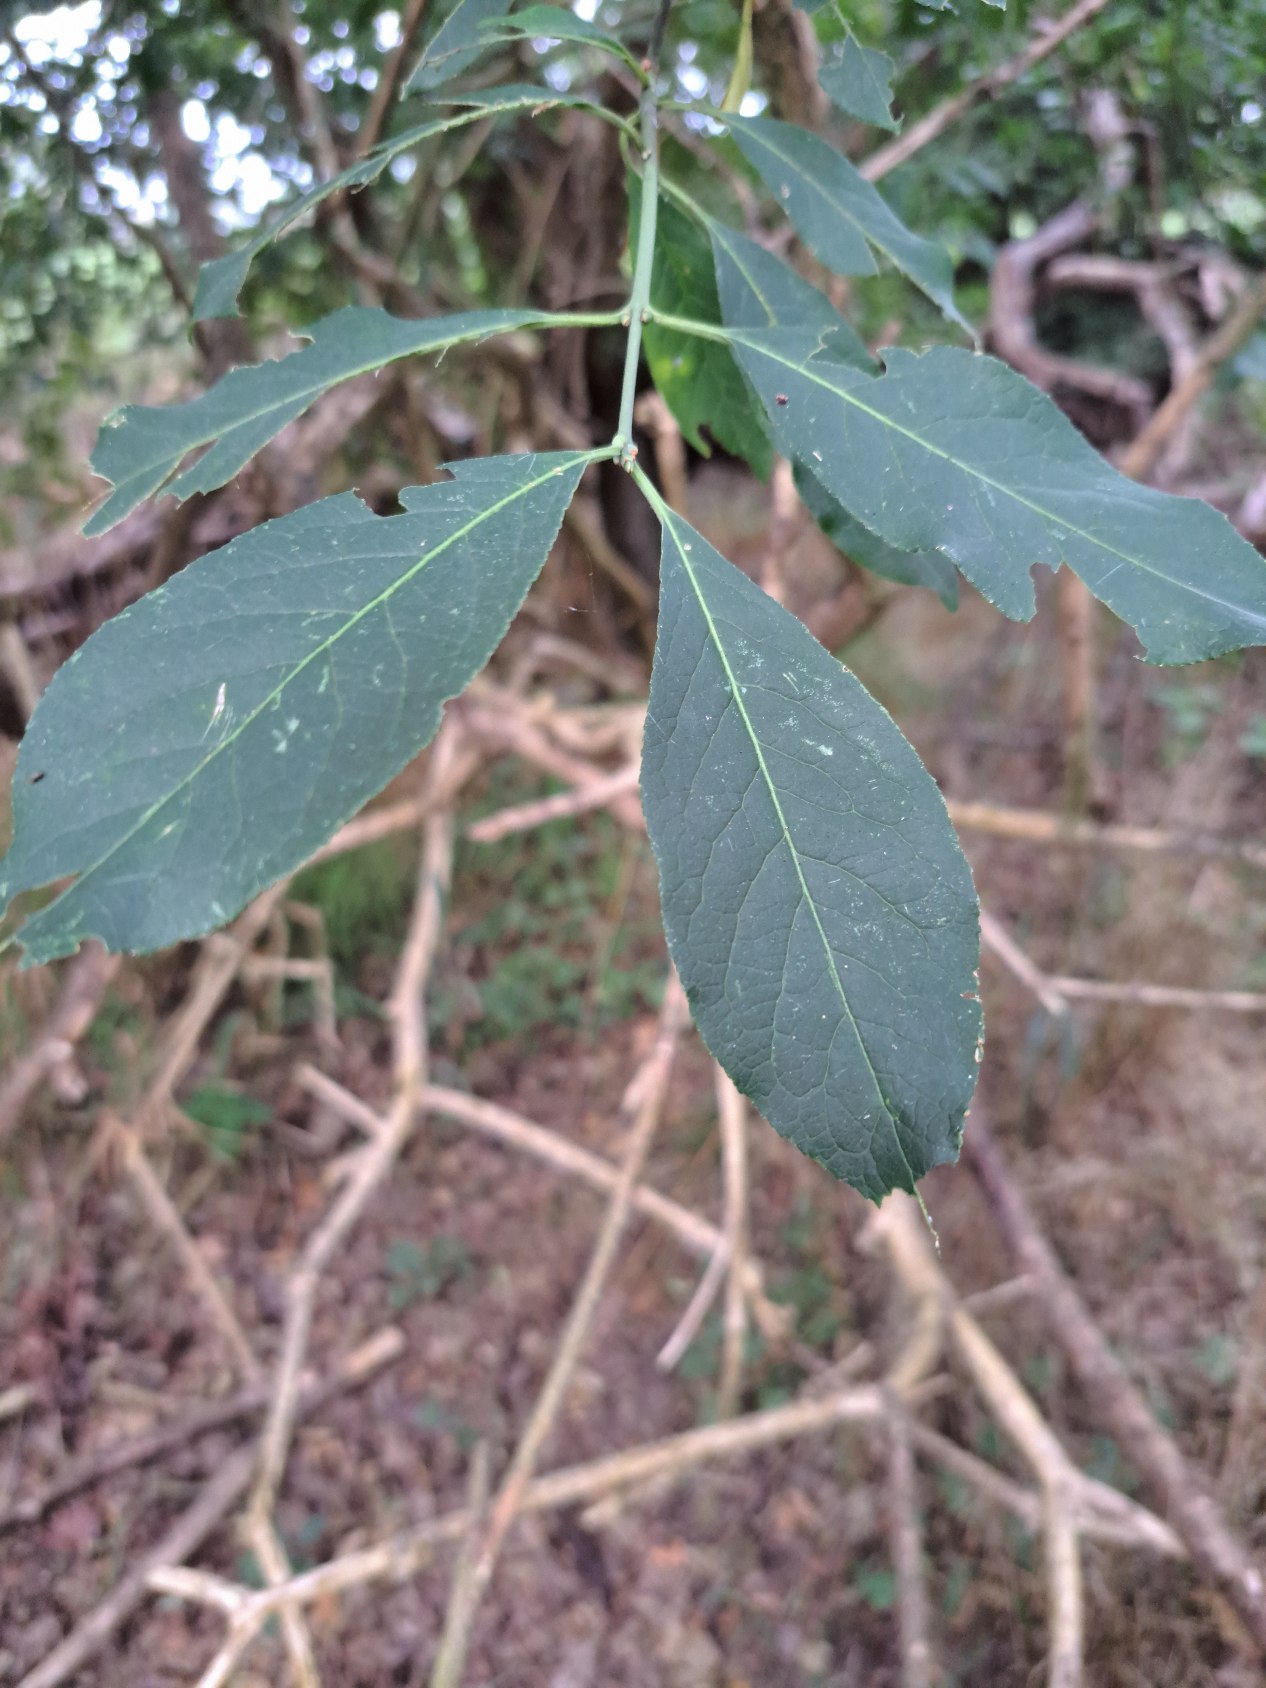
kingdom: Plantae
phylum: Tracheophyta
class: Magnoliopsida
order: Celastrales
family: Celastraceae
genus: Euonymus
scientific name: Euonymus europaeus
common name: Benved
